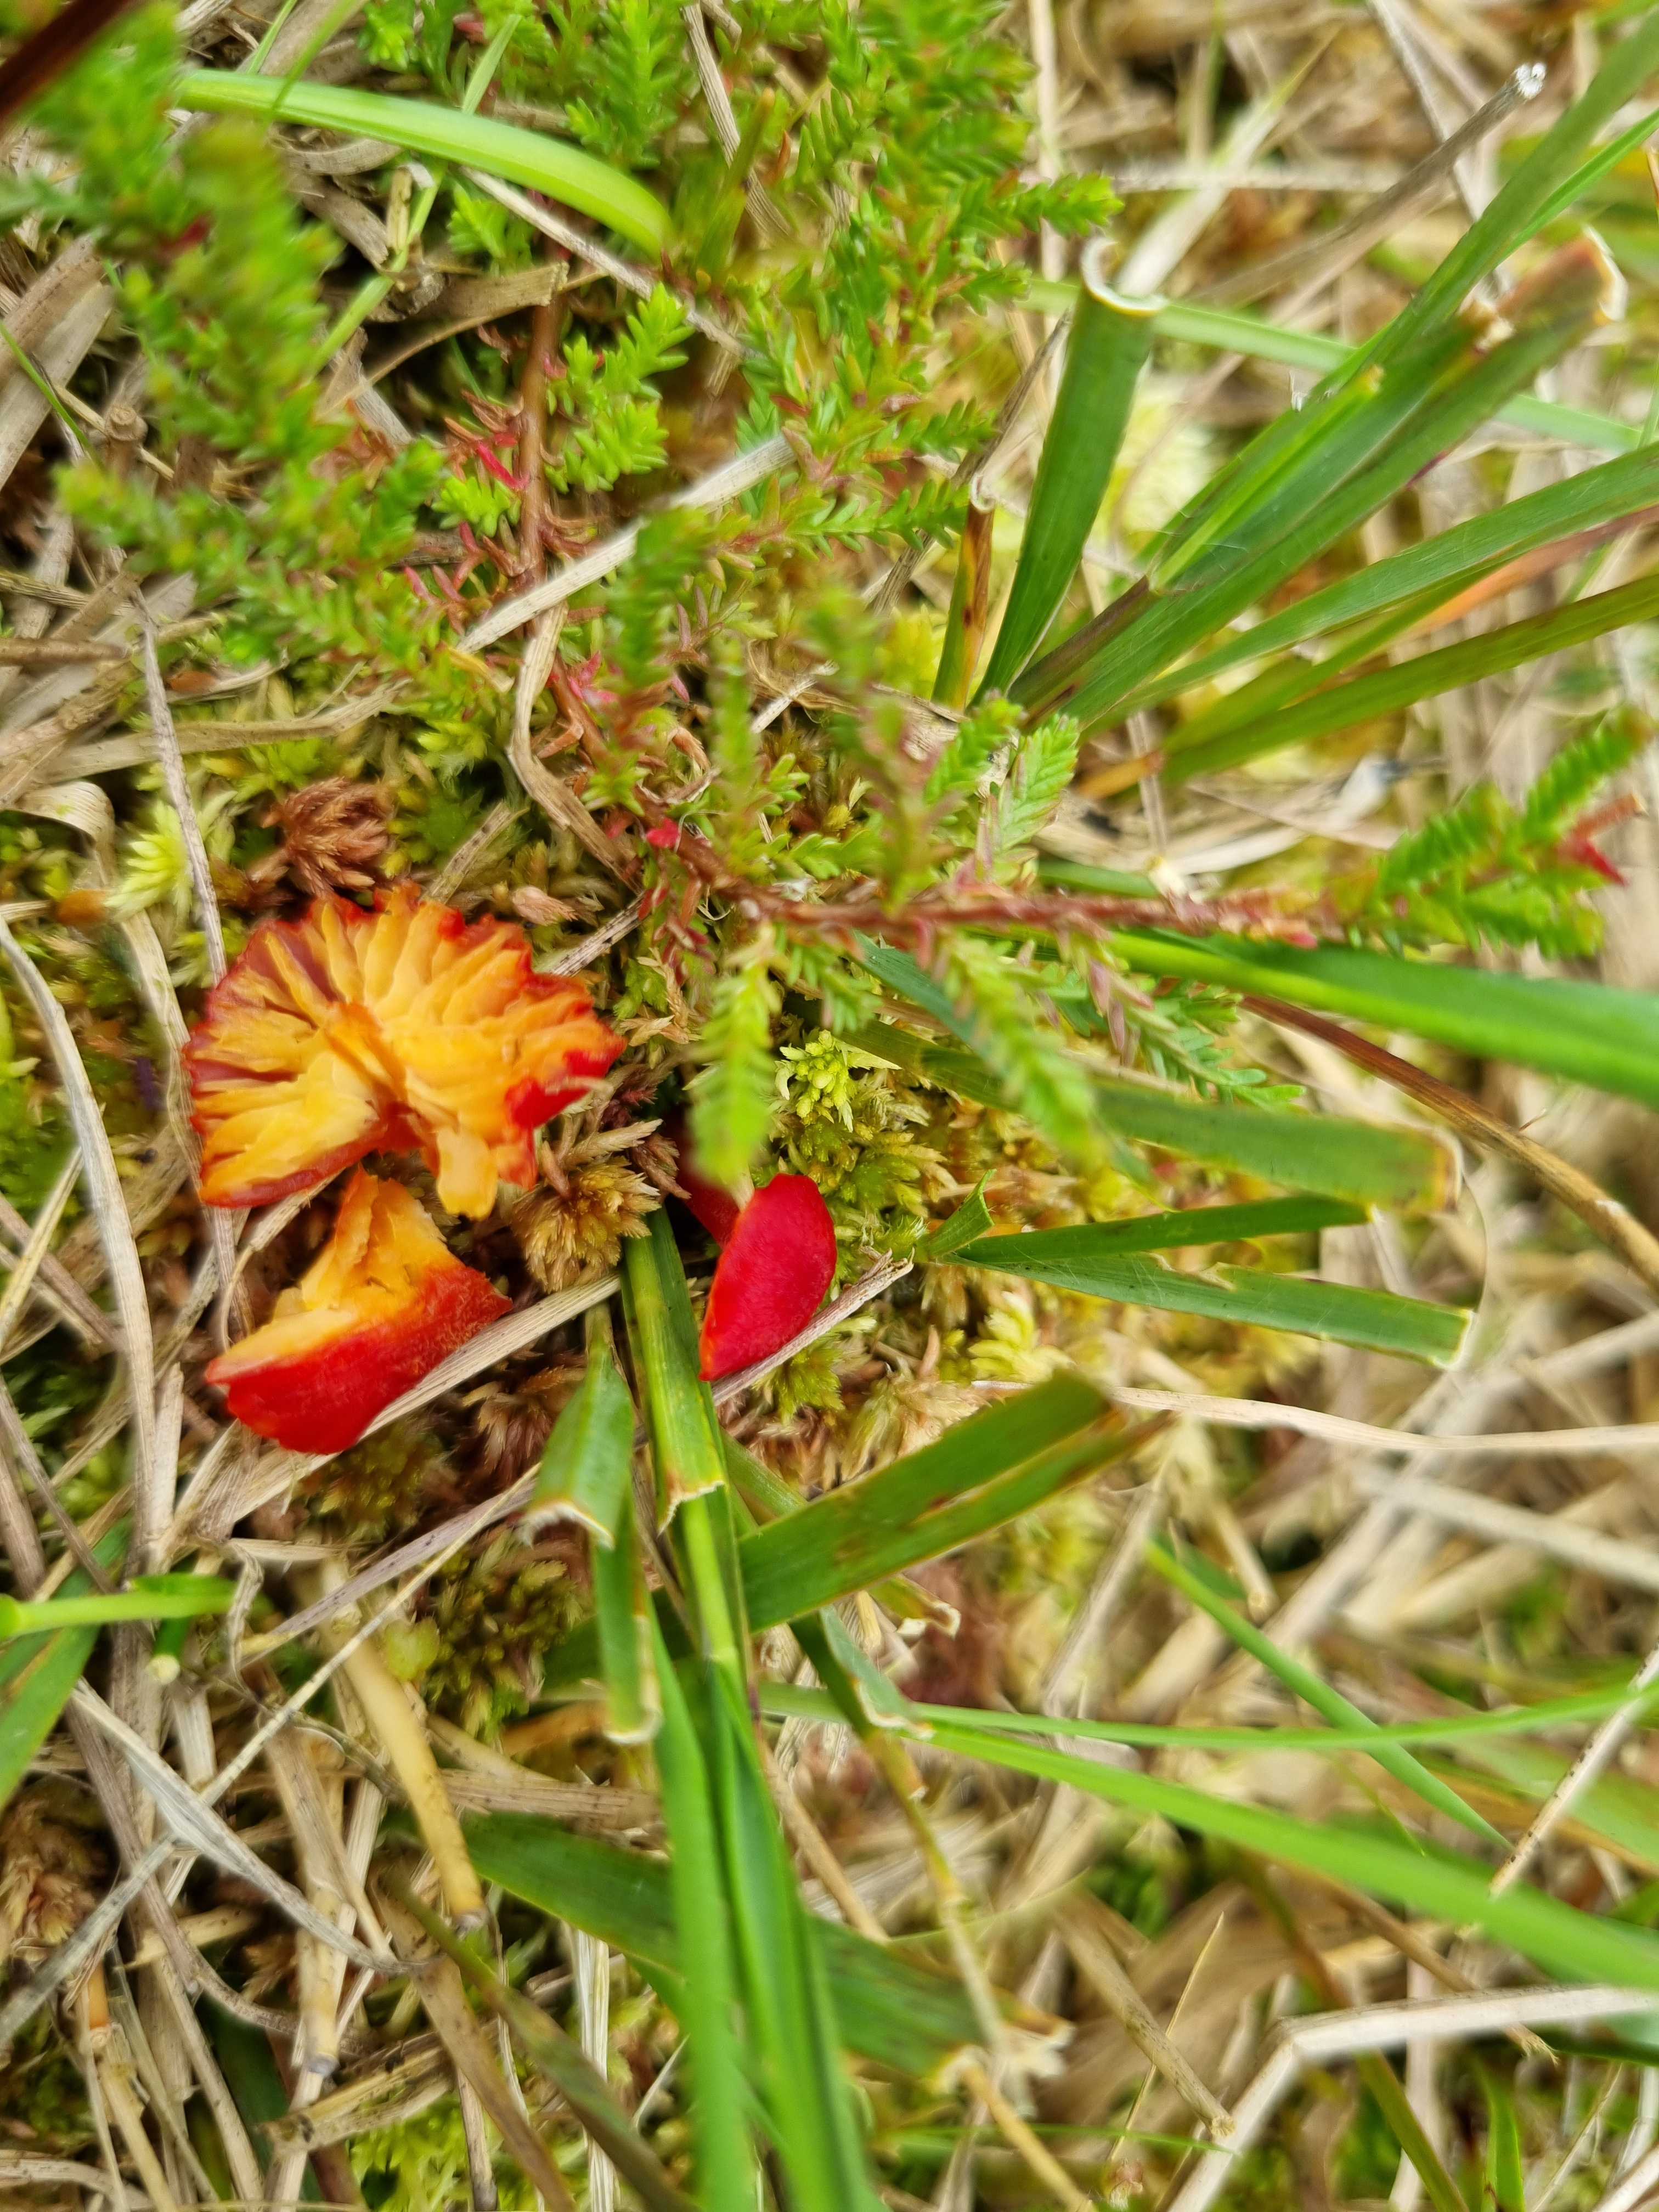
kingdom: Fungi
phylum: Basidiomycota
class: Agaricomycetes
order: Agaricales
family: Hygrophoraceae
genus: Hygrocybe
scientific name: Hygrocybe helobia
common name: hvidløgs-vokshat
